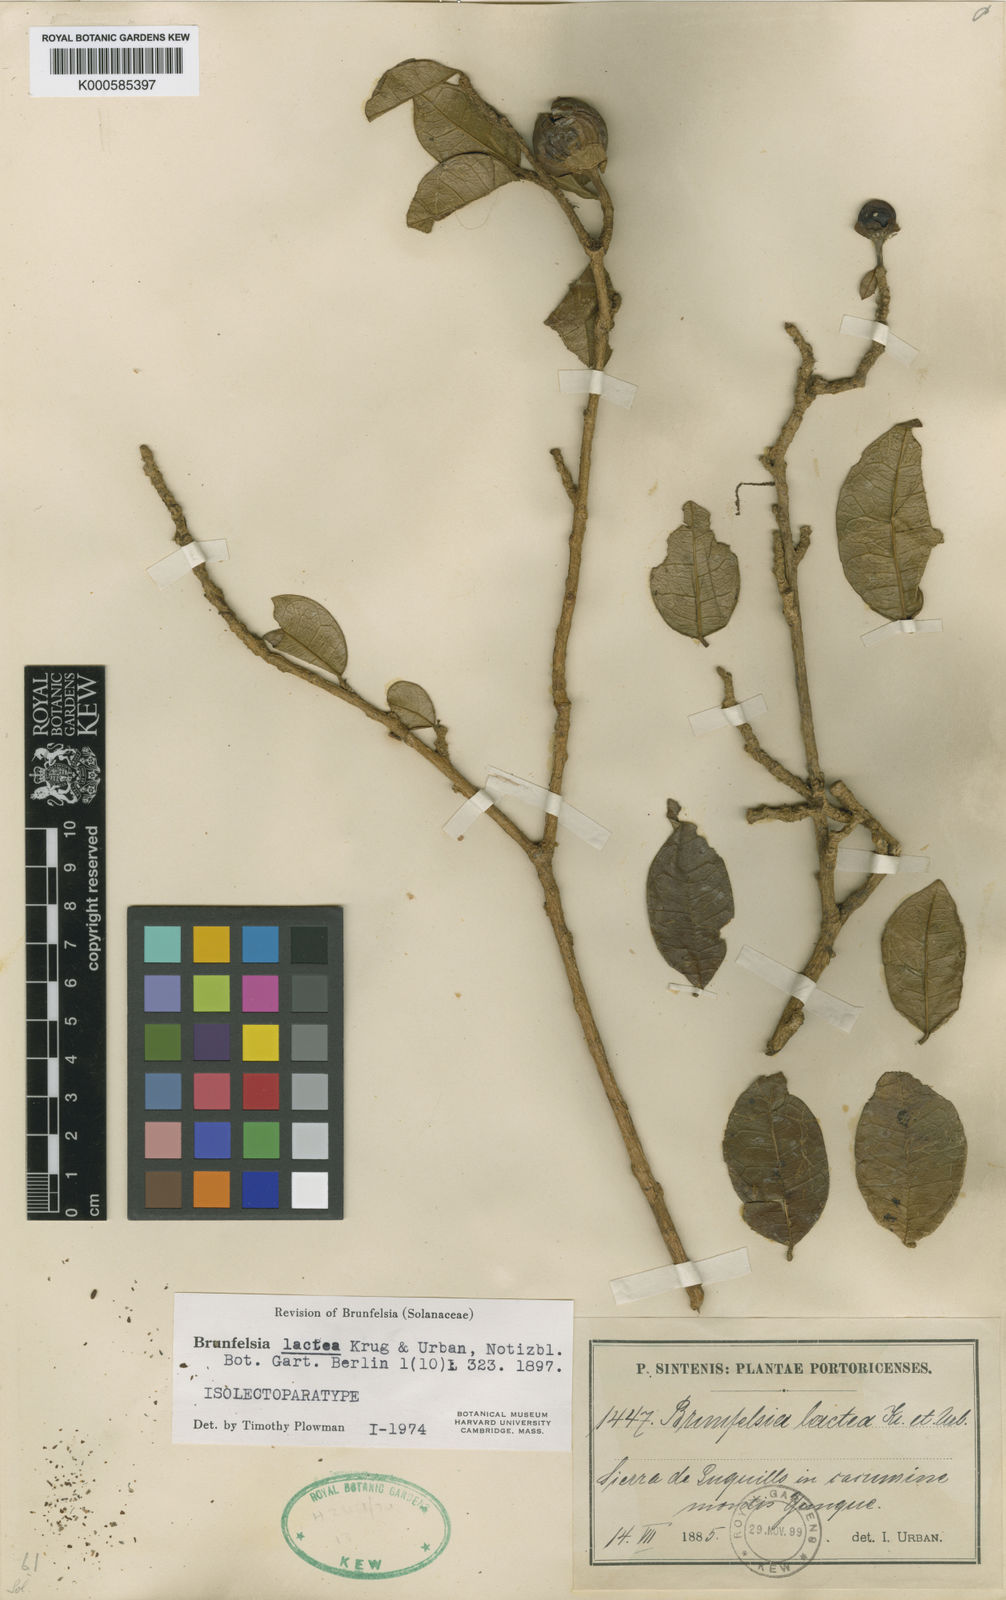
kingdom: Plantae
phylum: Tracheophyta
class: Magnoliopsida
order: Solanales
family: Solanaceae
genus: Brunfelsia
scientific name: Brunfelsia lactea
